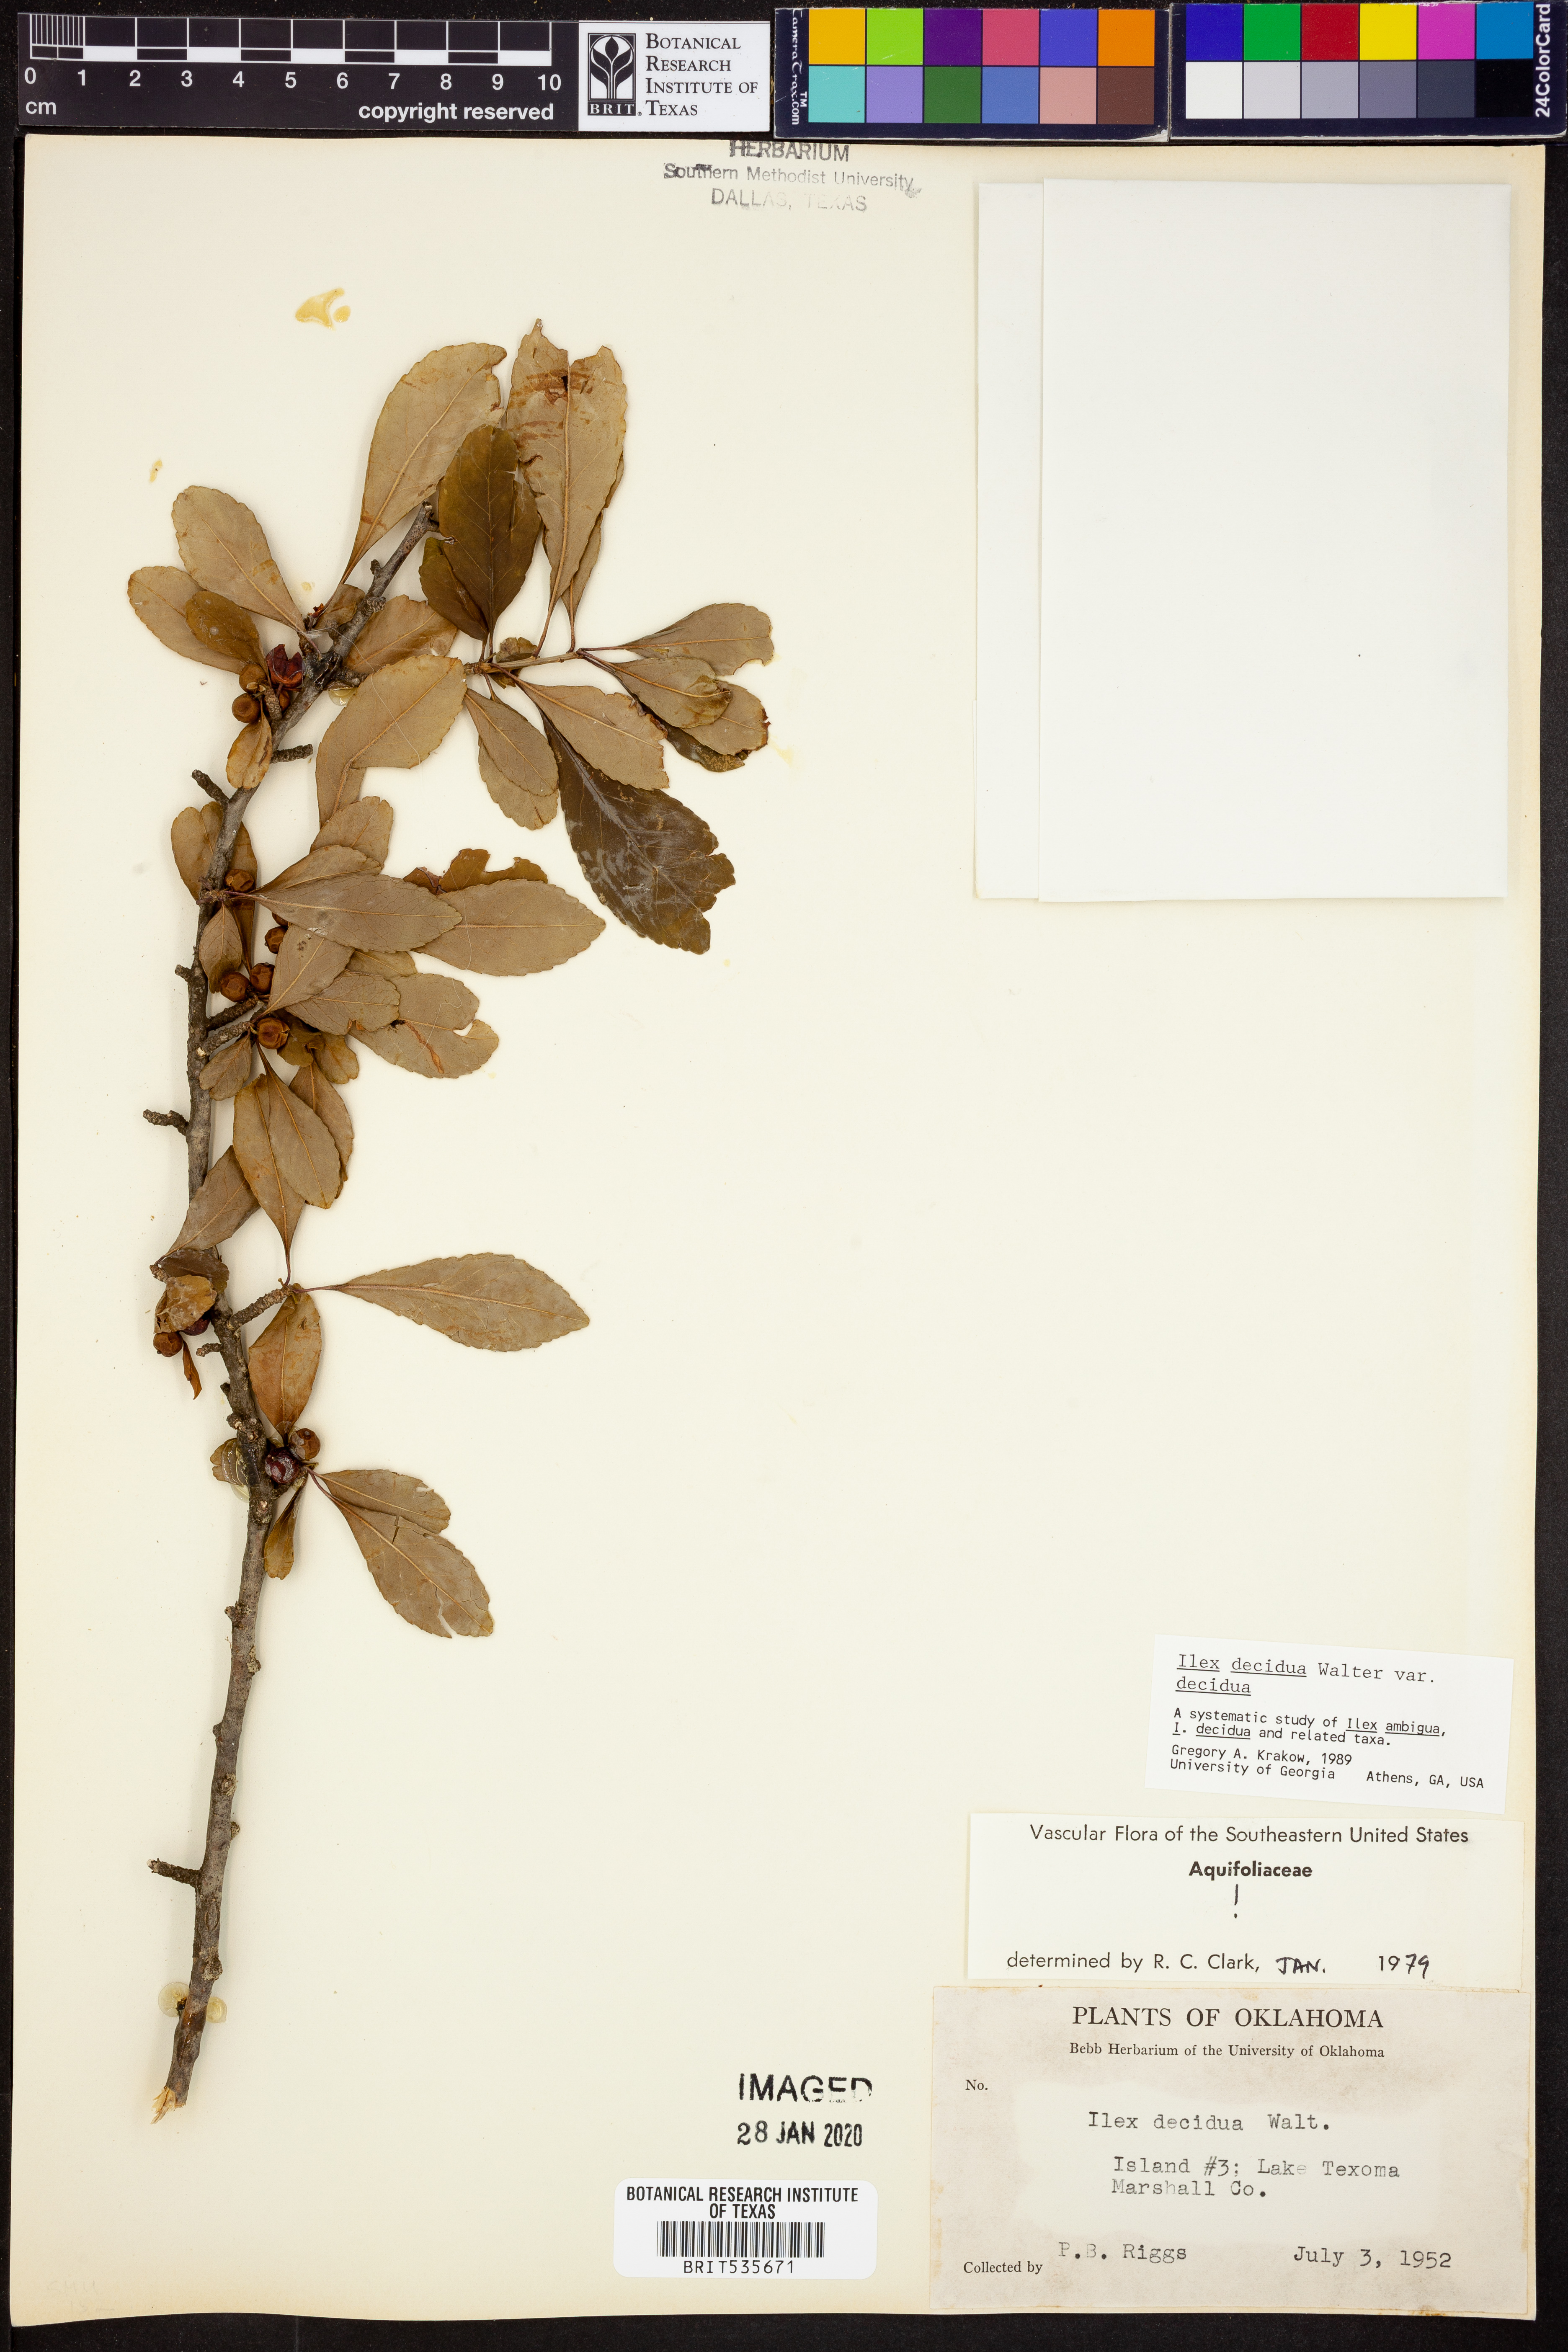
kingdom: Plantae
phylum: Tracheophyta
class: Magnoliopsida
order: Aquifoliales
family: Aquifoliaceae
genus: Ilex
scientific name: Ilex decidua
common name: Possum-haw
